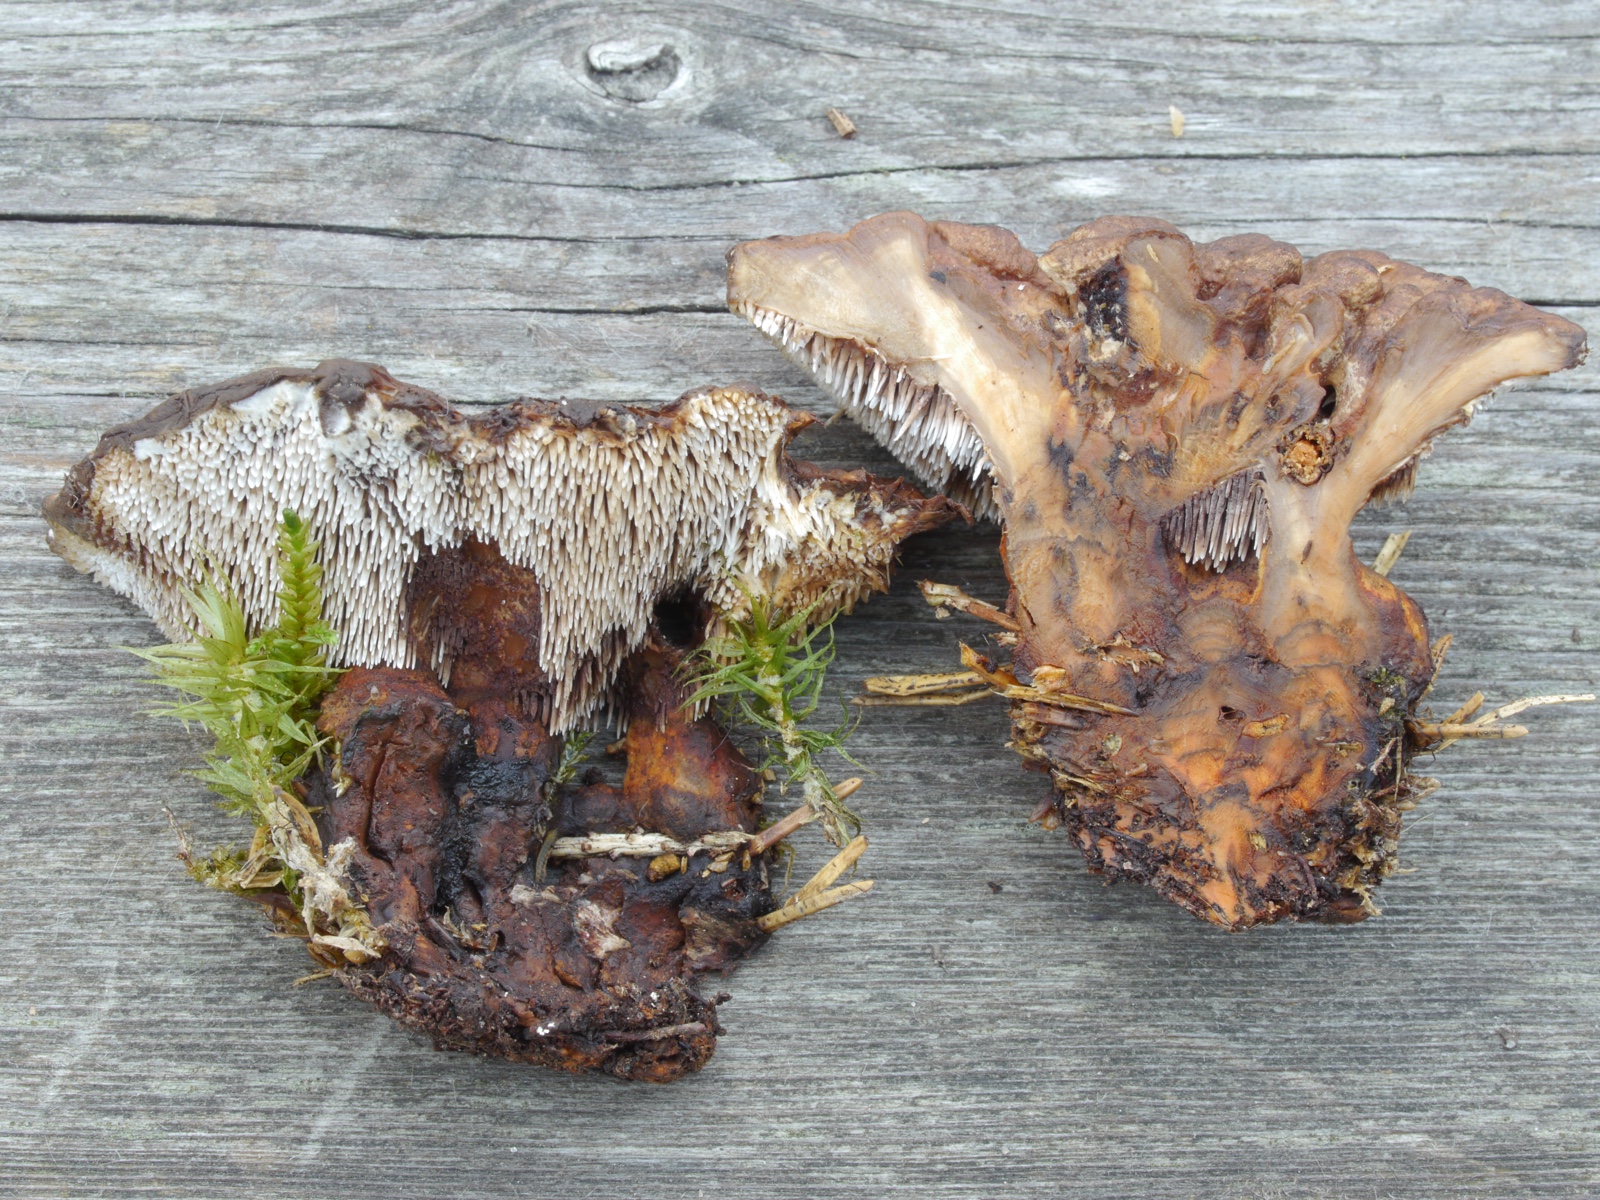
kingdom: Fungi
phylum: Basidiomycota
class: Agaricomycetes
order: Thelephorales
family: Bankeraceae
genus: Hydnellum
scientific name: Hydnellum aurantiacum
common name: orange korkpigsvamp
